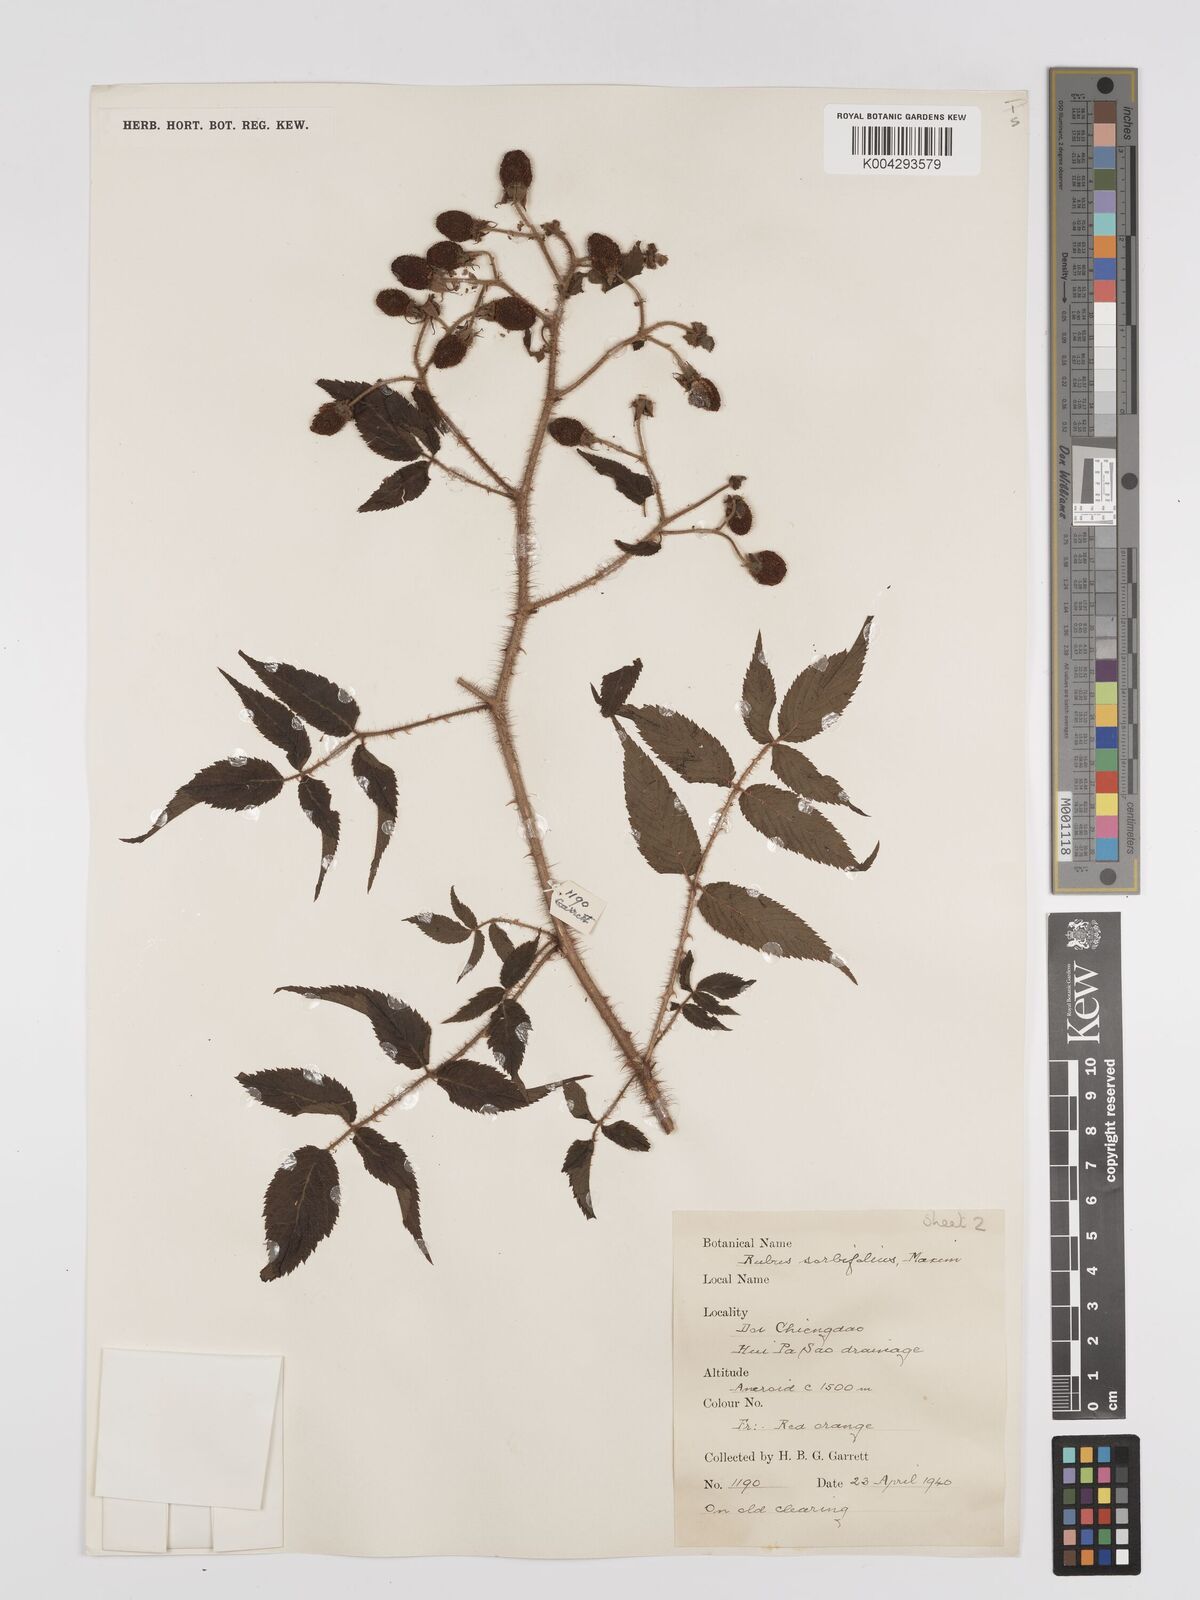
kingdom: Plantae
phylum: Tracheophyta
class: Magnoliopsida
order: Rosales
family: Rosaceae
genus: Rubus
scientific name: Rubus sumatranus
